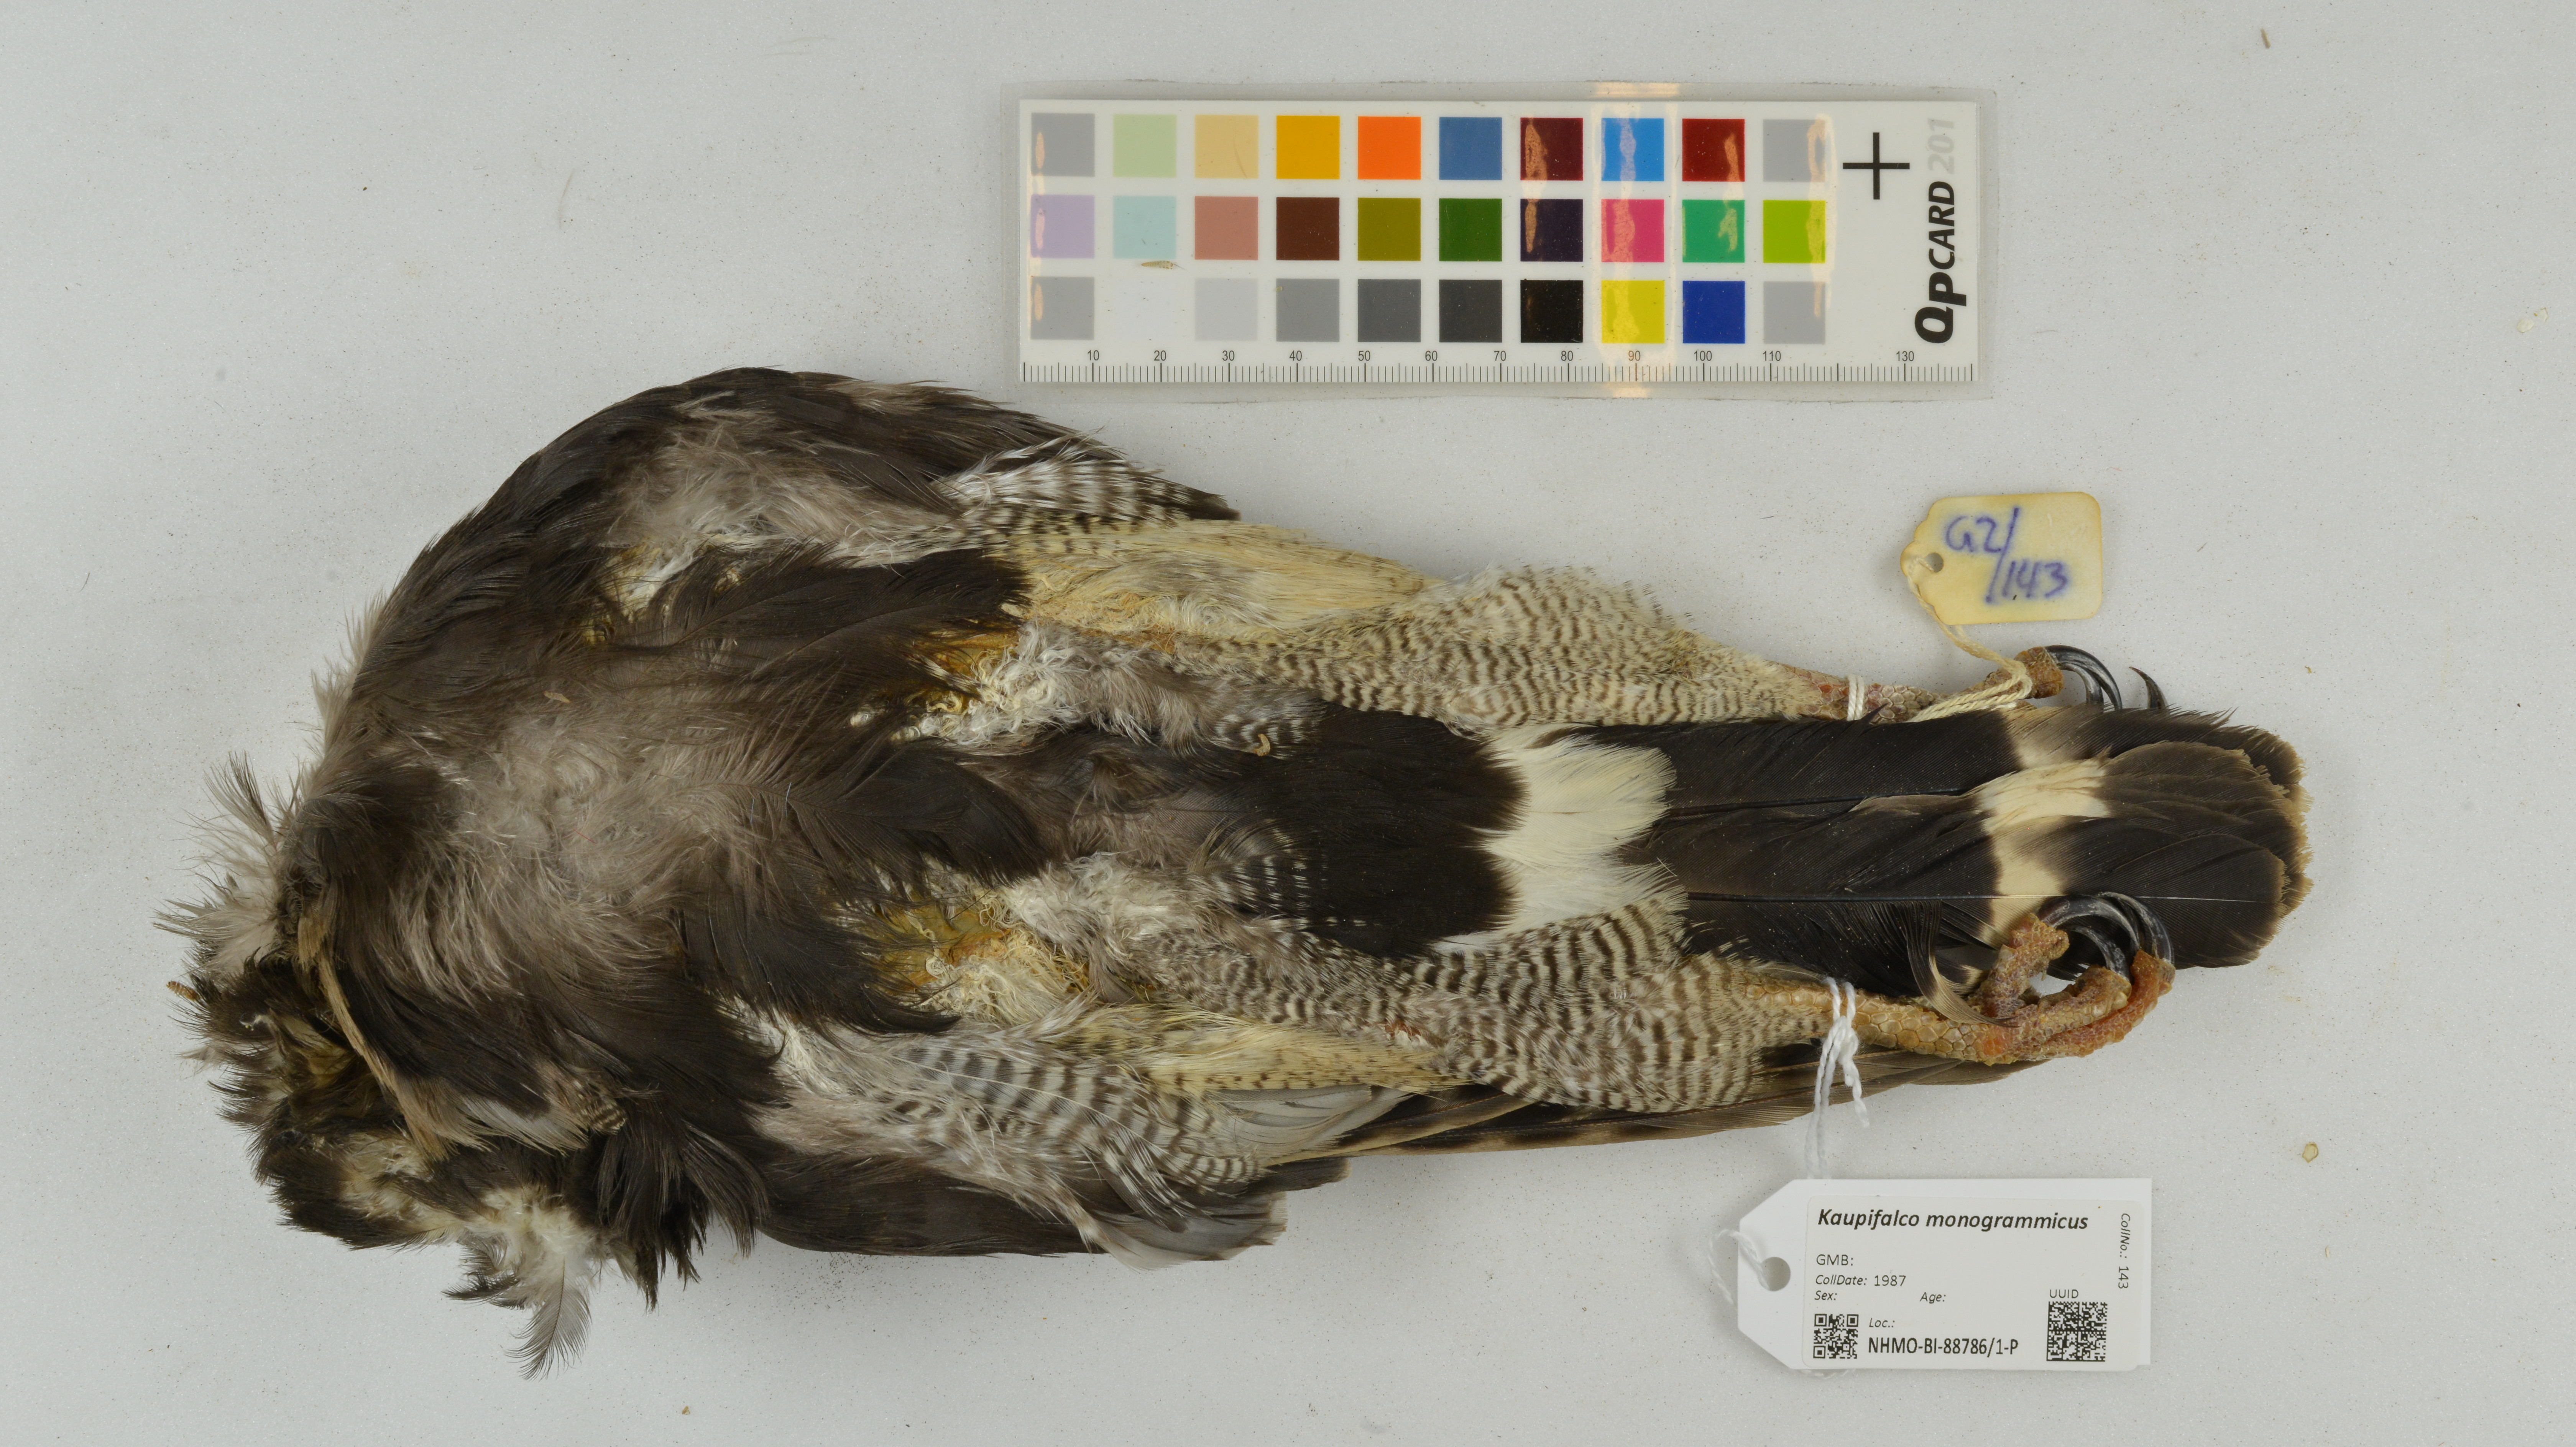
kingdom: Animalia
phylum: Chordata
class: Aves
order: Accipitriformes
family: Accipitridae
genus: Kaupifalco
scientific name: Kaupifalco monogrammicus
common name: Lizard buzzard
